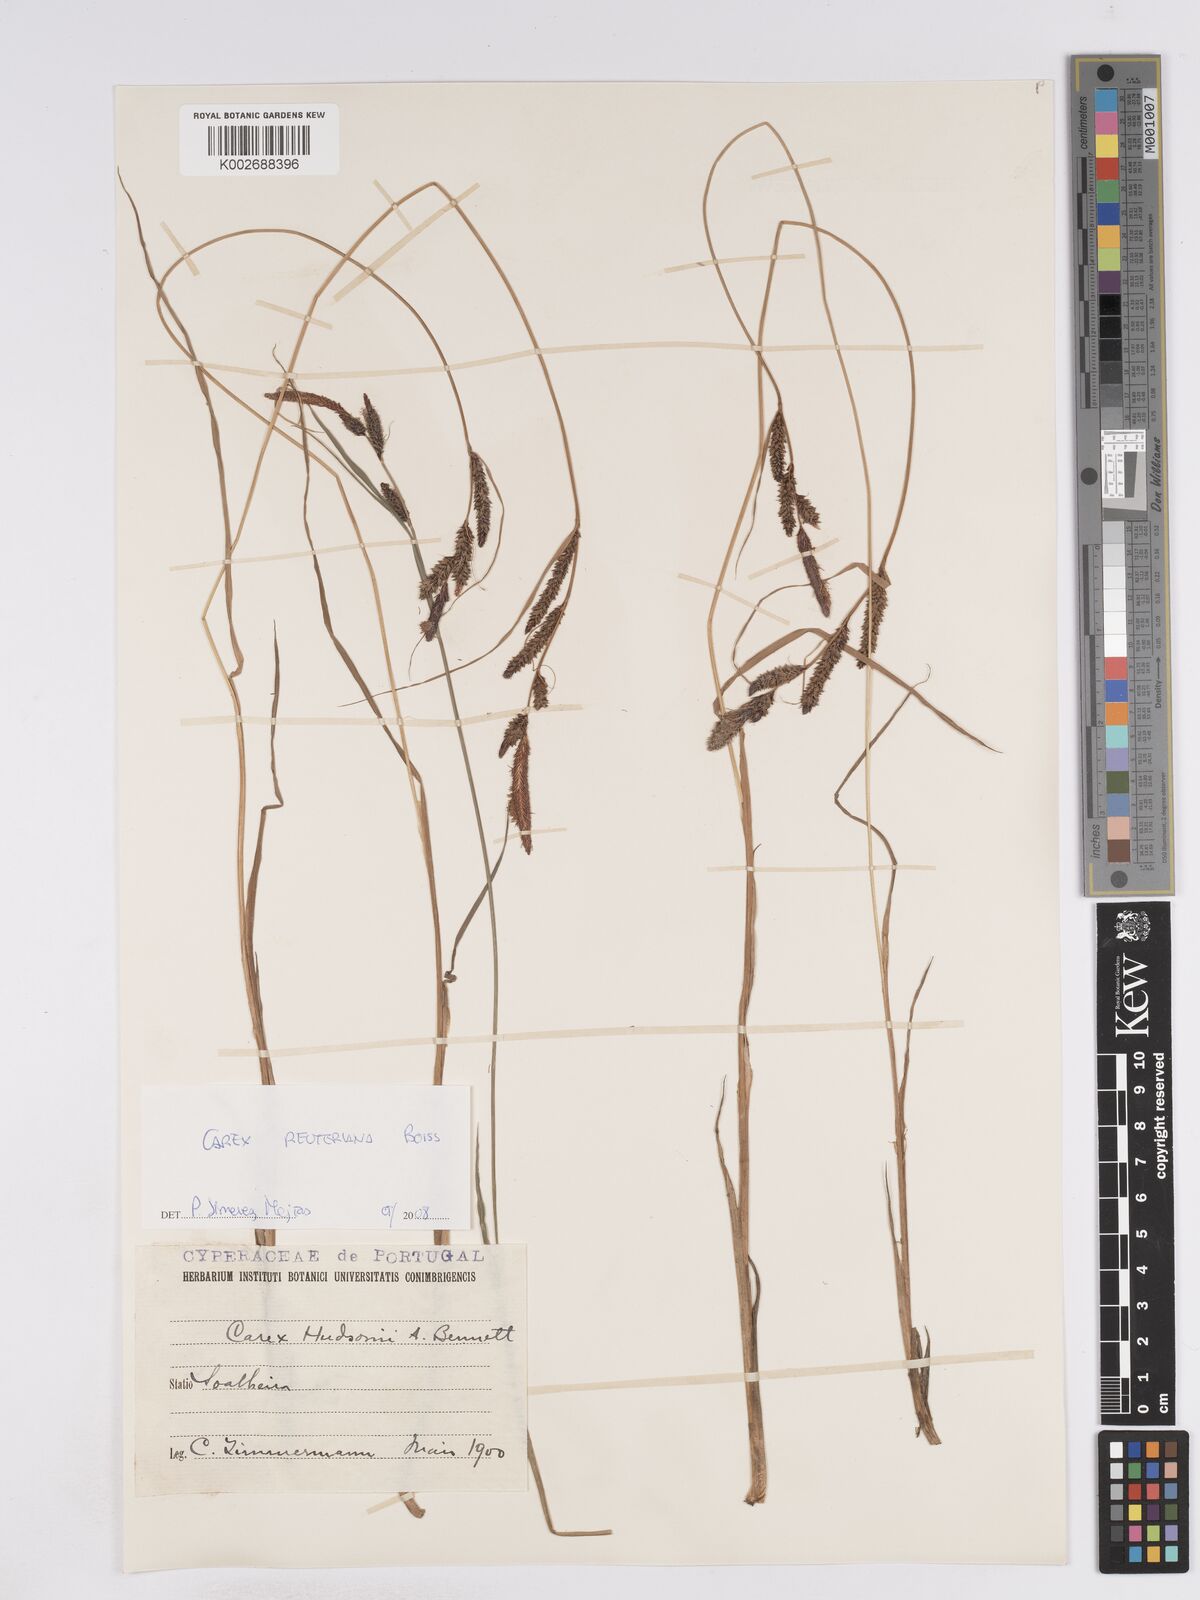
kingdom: Plantae
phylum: Tracheophyta
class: Liliopsida
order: Poales
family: Cyperaceae
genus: Carex
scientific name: Carex reuteriana
